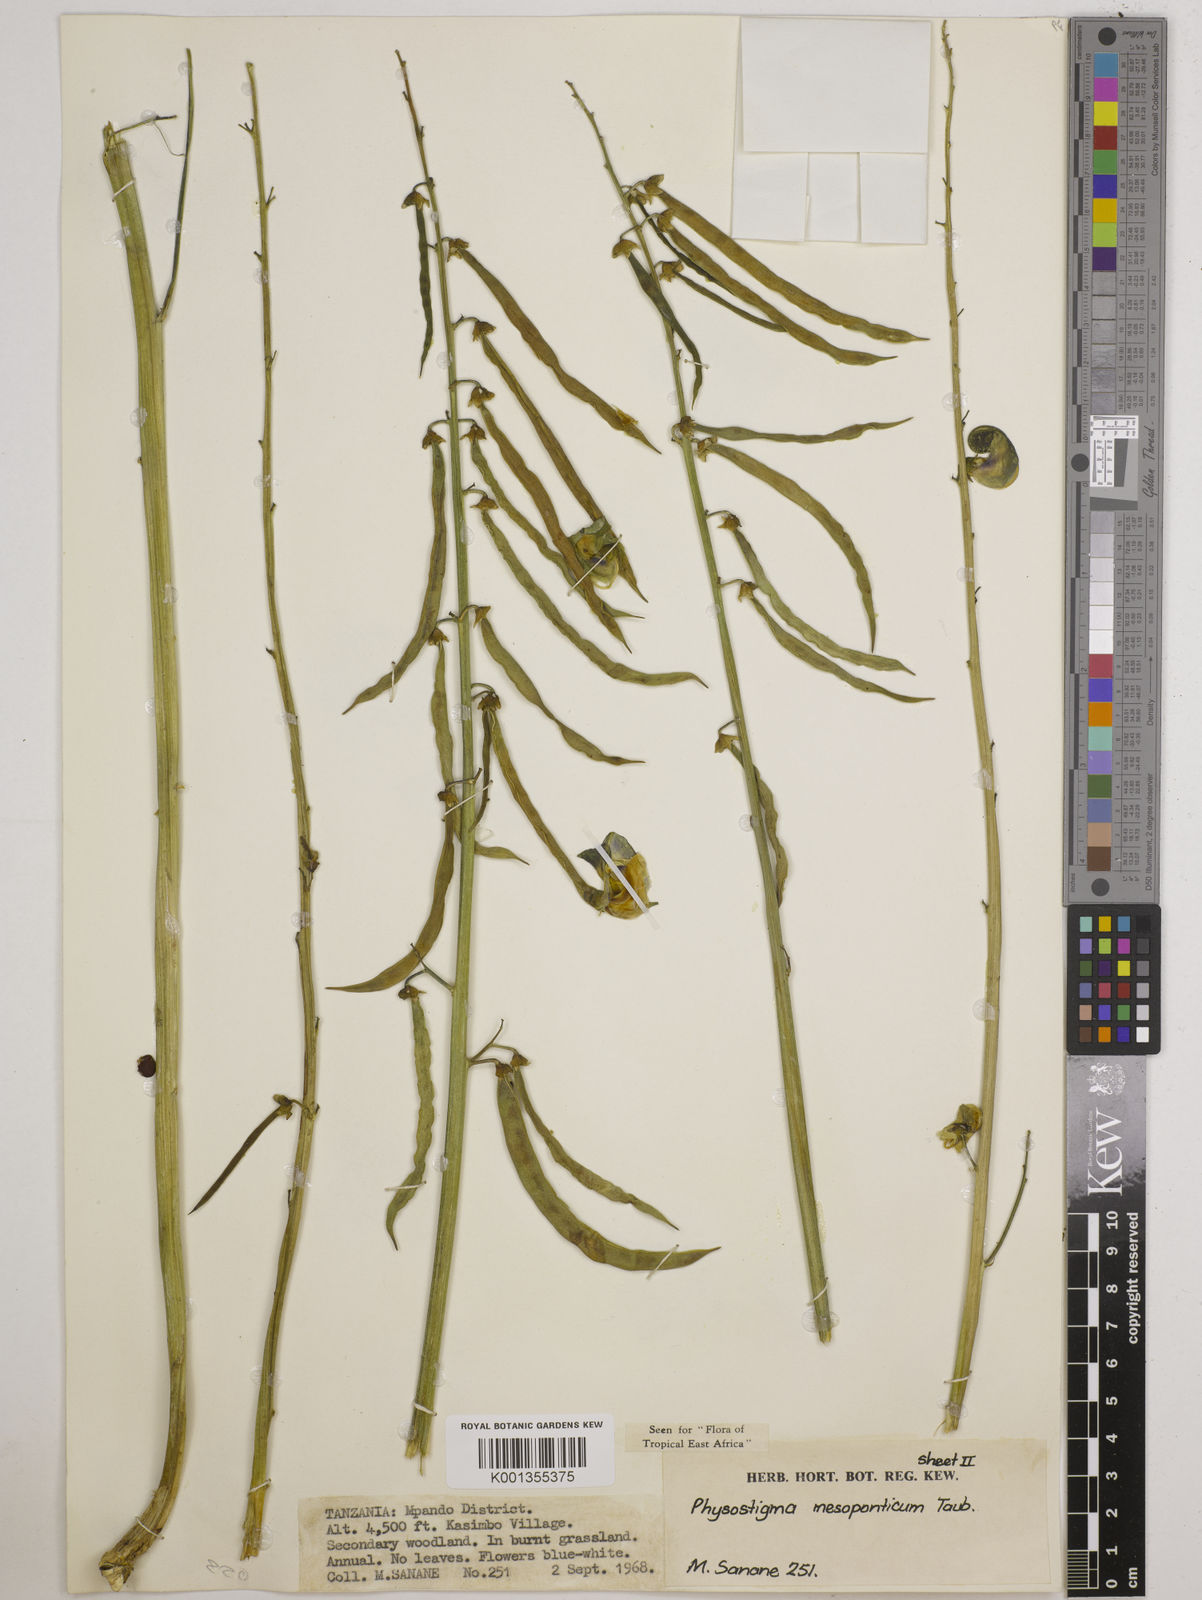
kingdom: Plantae
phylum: Tracheophyta
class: Magnoliopsida
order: Fabales
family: Fabaceae
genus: Physostigma
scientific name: Physostigma mesoponticum
